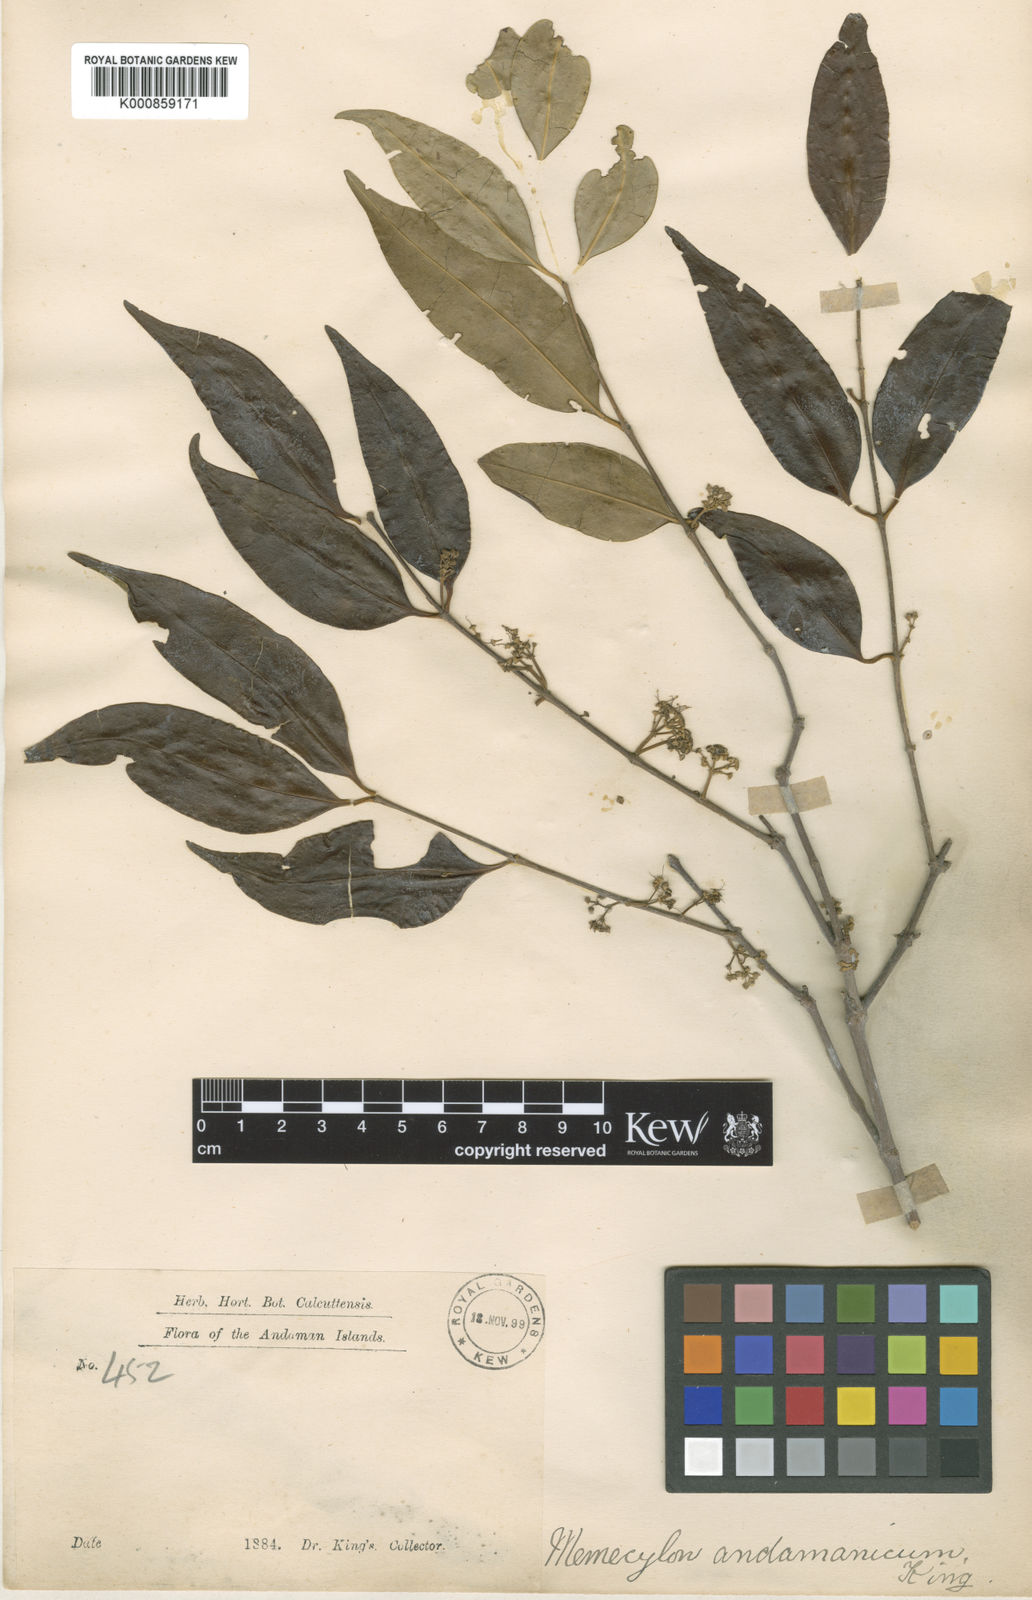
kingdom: Plantae
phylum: Tracheophyta
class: Magnoliopsida
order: Myrtales
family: Melastomataceae
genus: Memecylon
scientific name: Memecylon andamanicum
